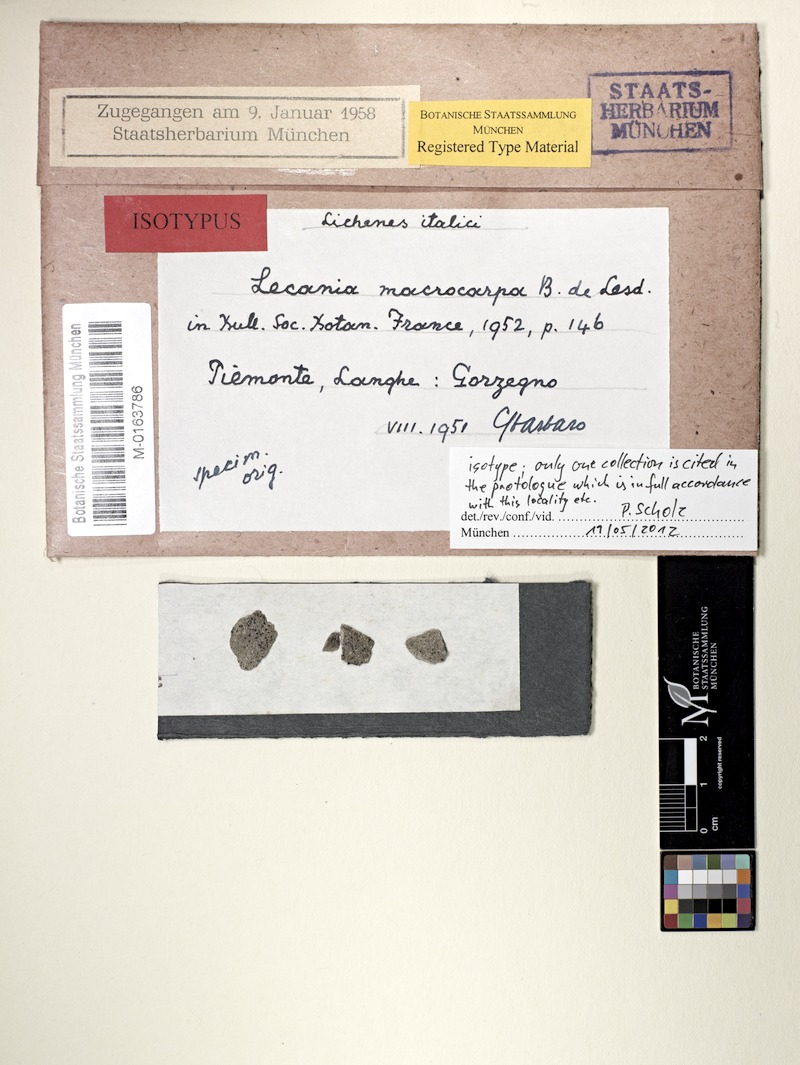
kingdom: Fungi
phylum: Ascomycota
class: Lecanoromycetes
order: Lecanorales
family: Ramalinaceae
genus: Lecania
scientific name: Lecania atrynoides
